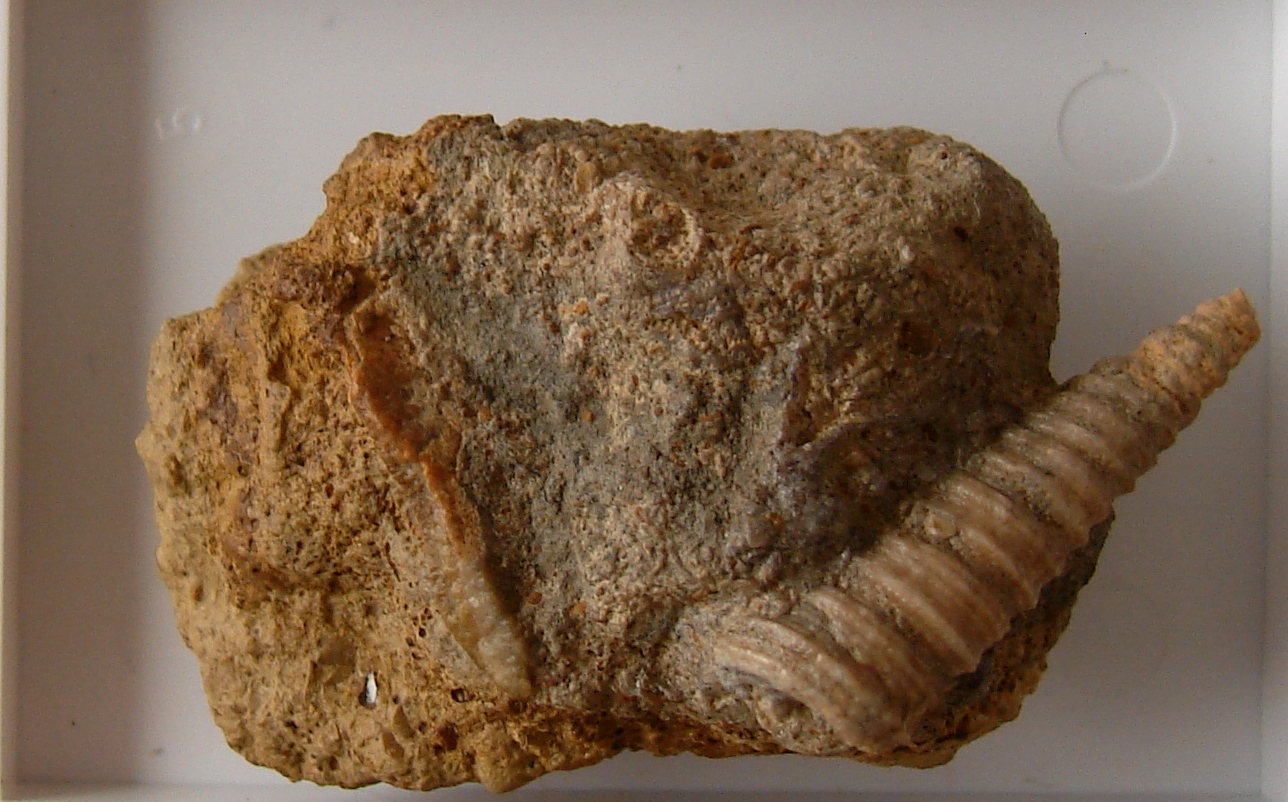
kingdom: Animalia
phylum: Mollusca
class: Gastropoda
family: Gordenellidae
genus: Turritelloidea
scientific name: Turritelloidea
